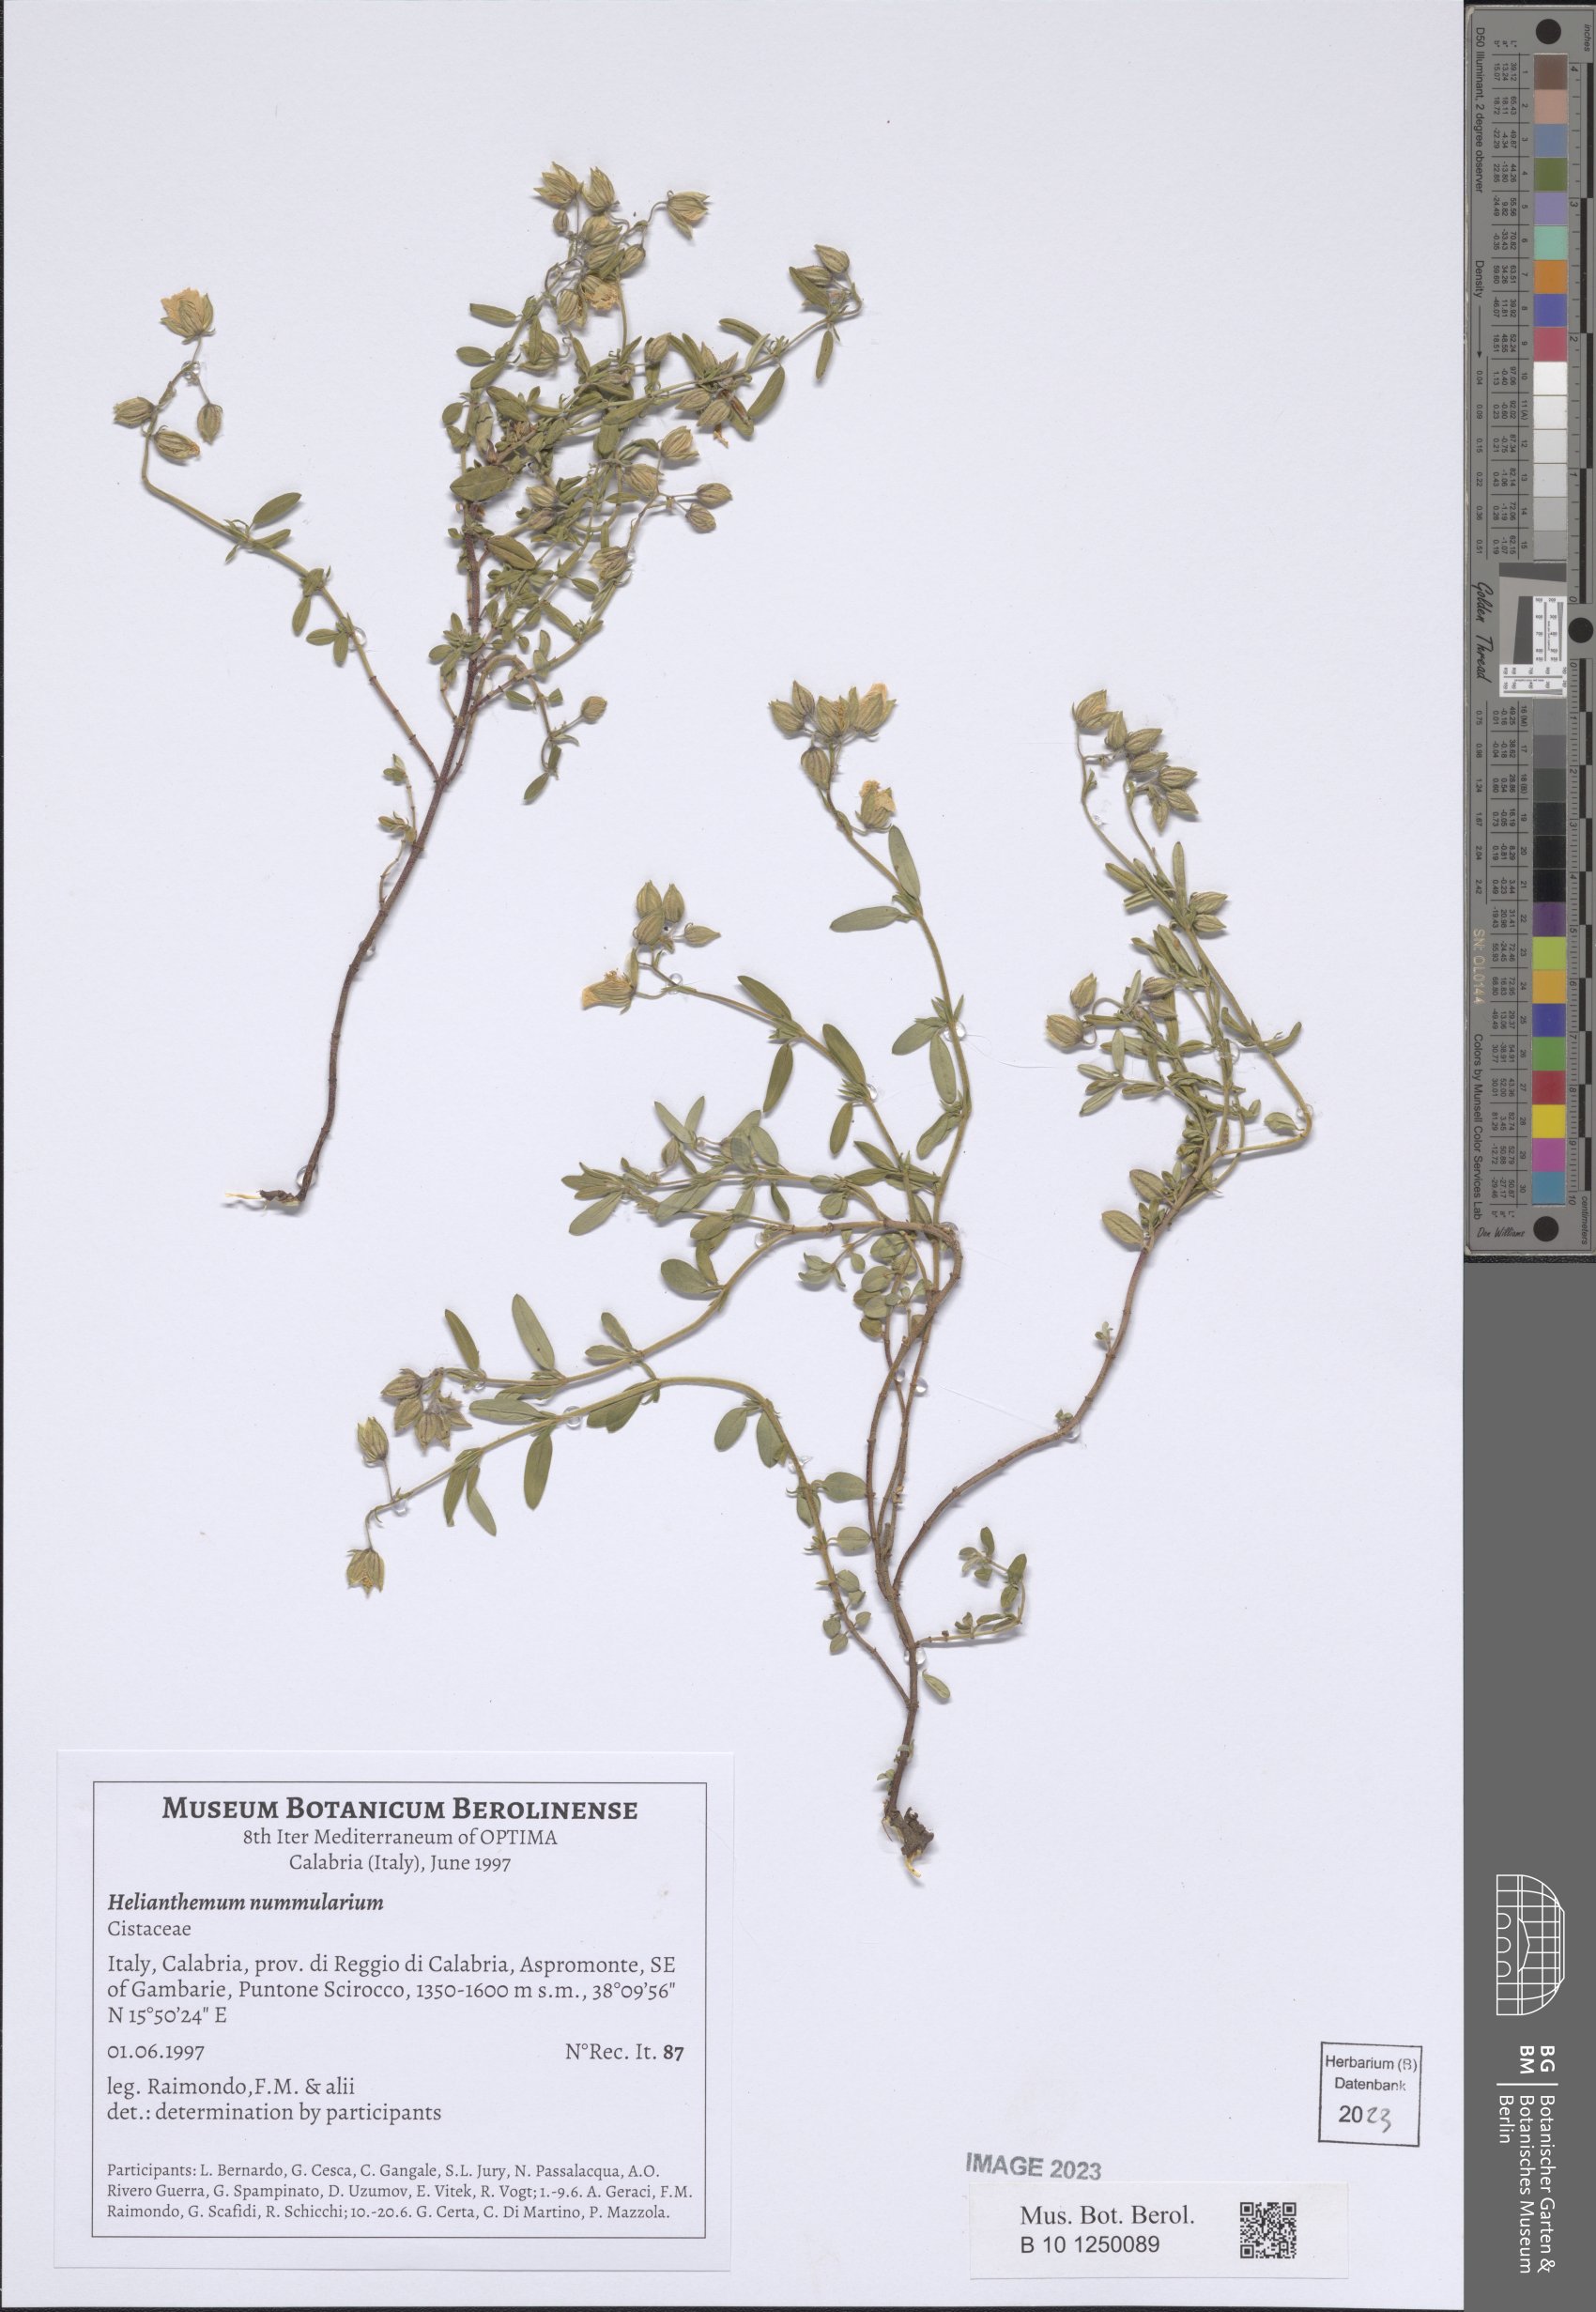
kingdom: Plantae
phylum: Tracheophyta
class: Magnoliopsida
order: Malvales
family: Cistaceae
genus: Helianthemum
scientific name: Helianthemum nummularium
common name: Common rock-rose
